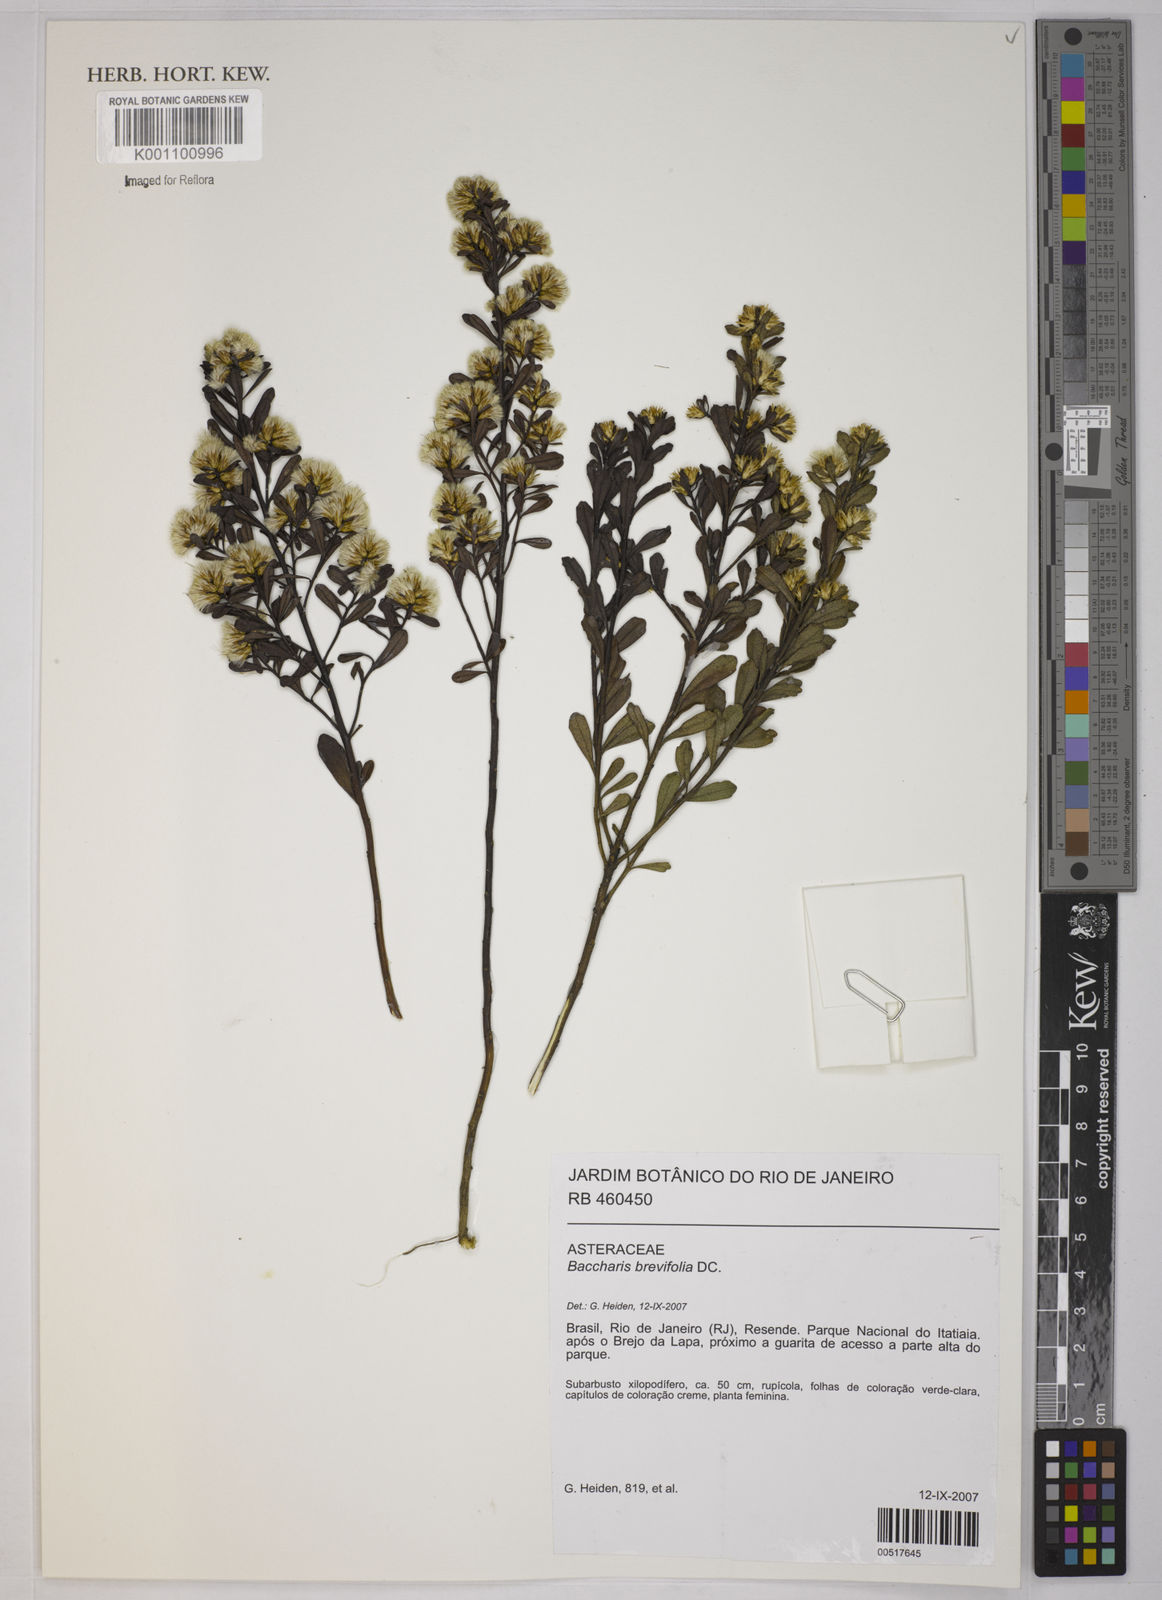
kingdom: Plantae
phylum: Tracheophyta
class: Magnoliopsida
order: Asterales
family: Asteraceae
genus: Baccharis
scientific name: Baccharis brevifolia
